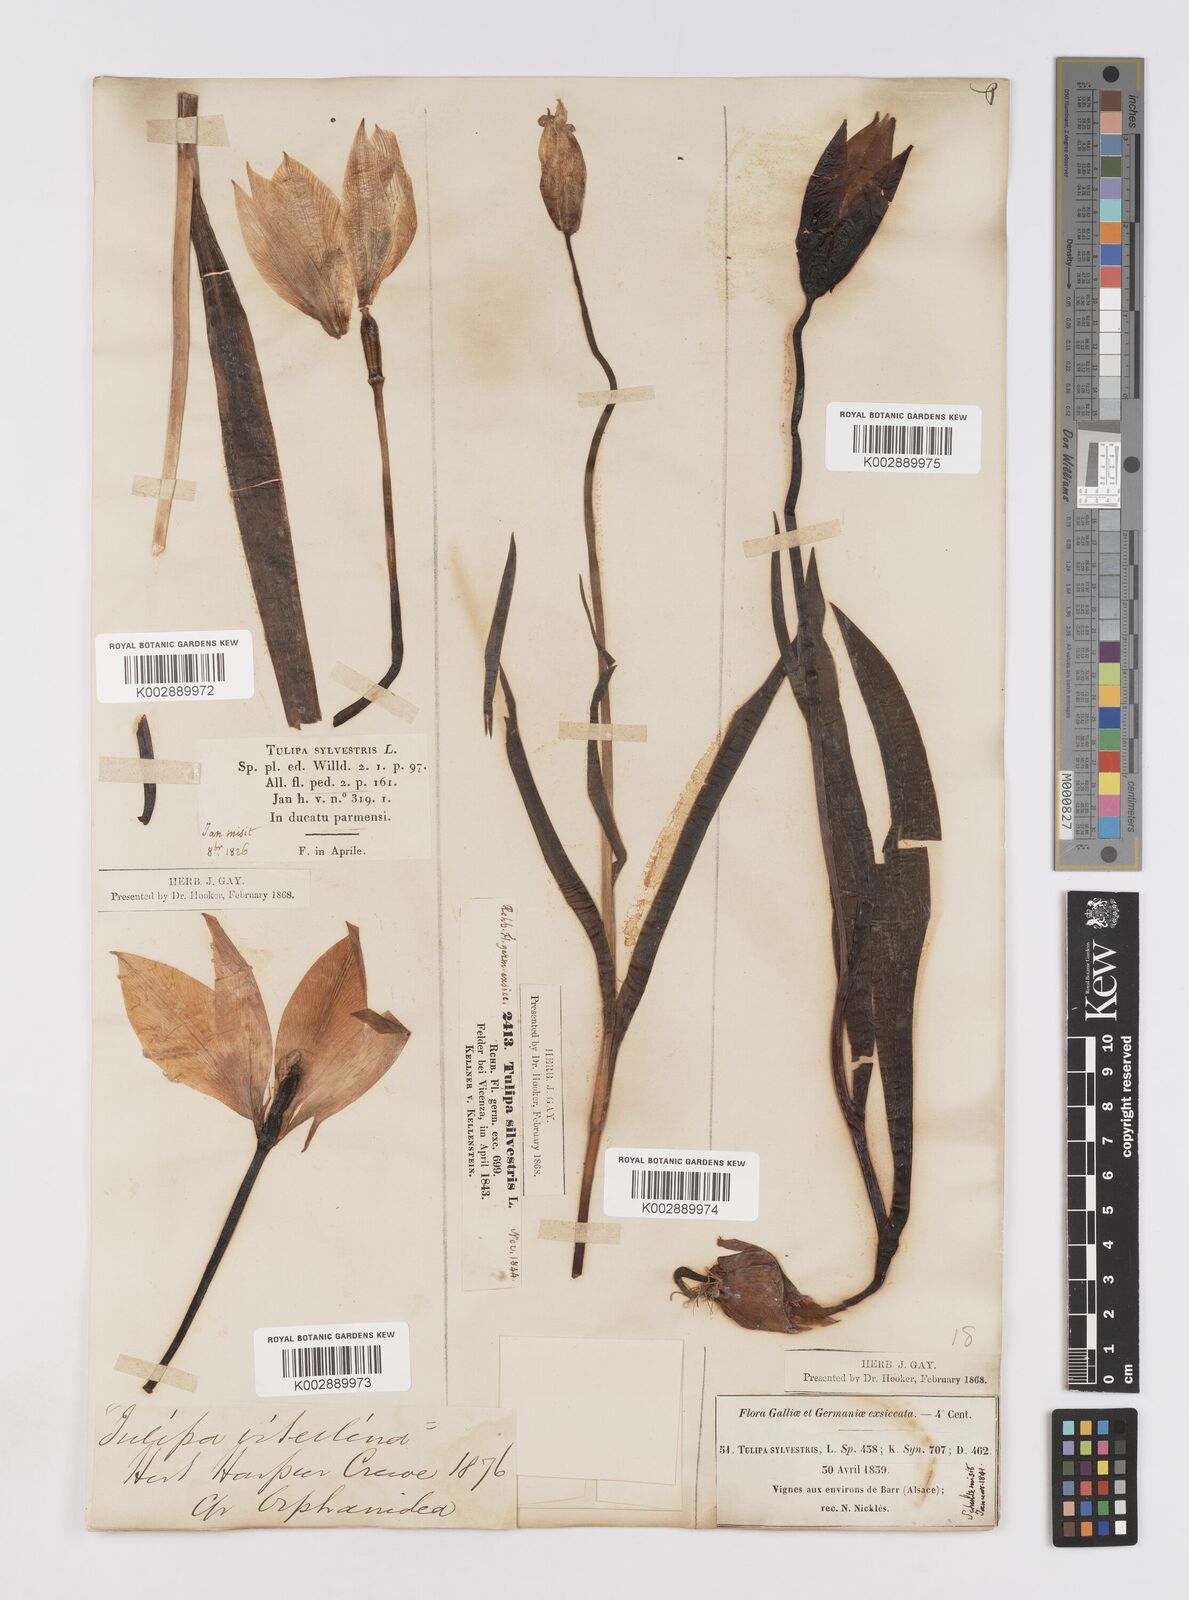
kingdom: Plantae
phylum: Tracheophyta
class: Liliopsida
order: Liliales
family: Liliaceae
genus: Tulipa
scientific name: Tulipa sylvestris
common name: Wild tulip
